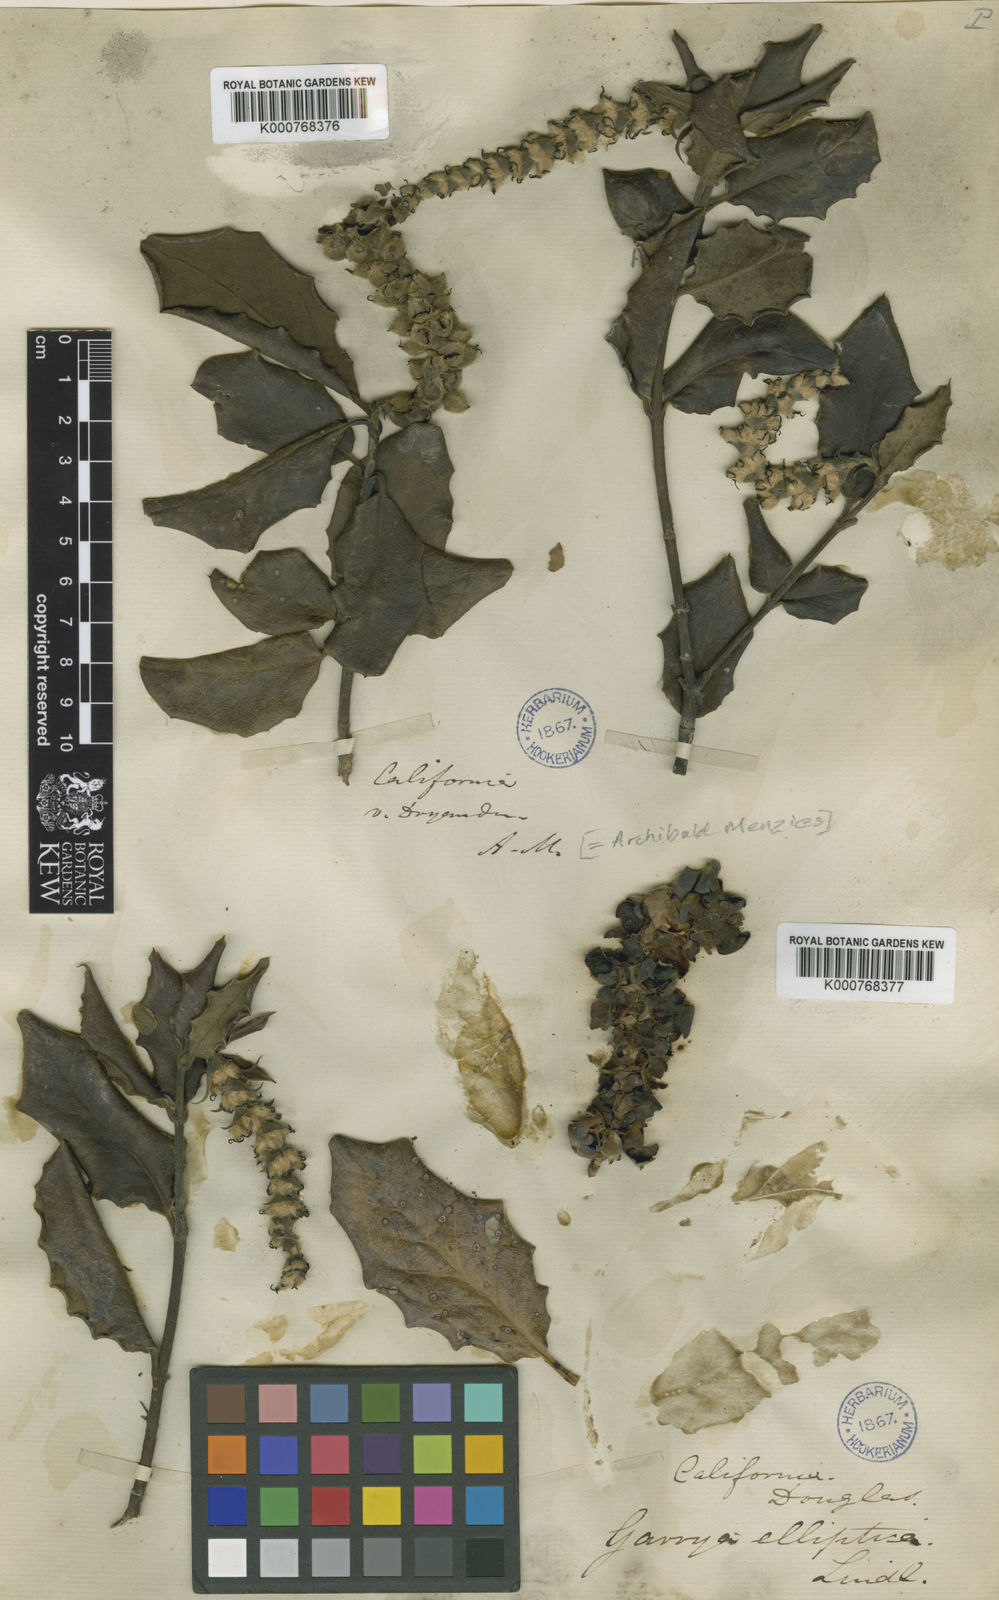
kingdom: Plantae
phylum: Tracheophyta
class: Magnoliopsida
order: Garryales
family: Garryaceae
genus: Garrya
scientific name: Garrya elliptica
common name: Silk-tassel
